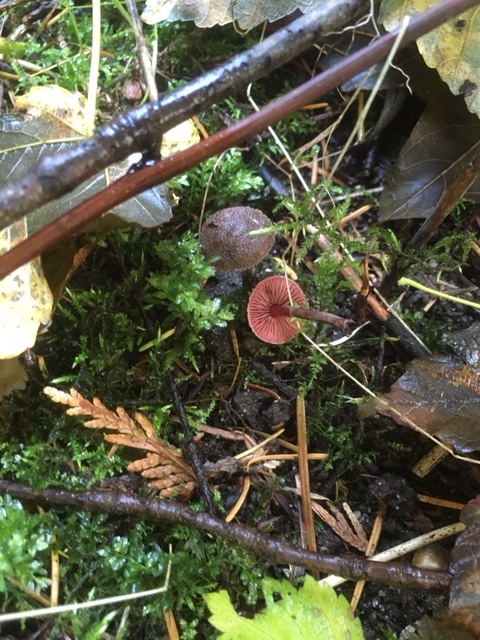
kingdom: Fungi
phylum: Basidiomycota
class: Agaricomycetes
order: Agaricales
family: Agaricaceae
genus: Melanophyllum
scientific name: Melanophyllum haematospermum
